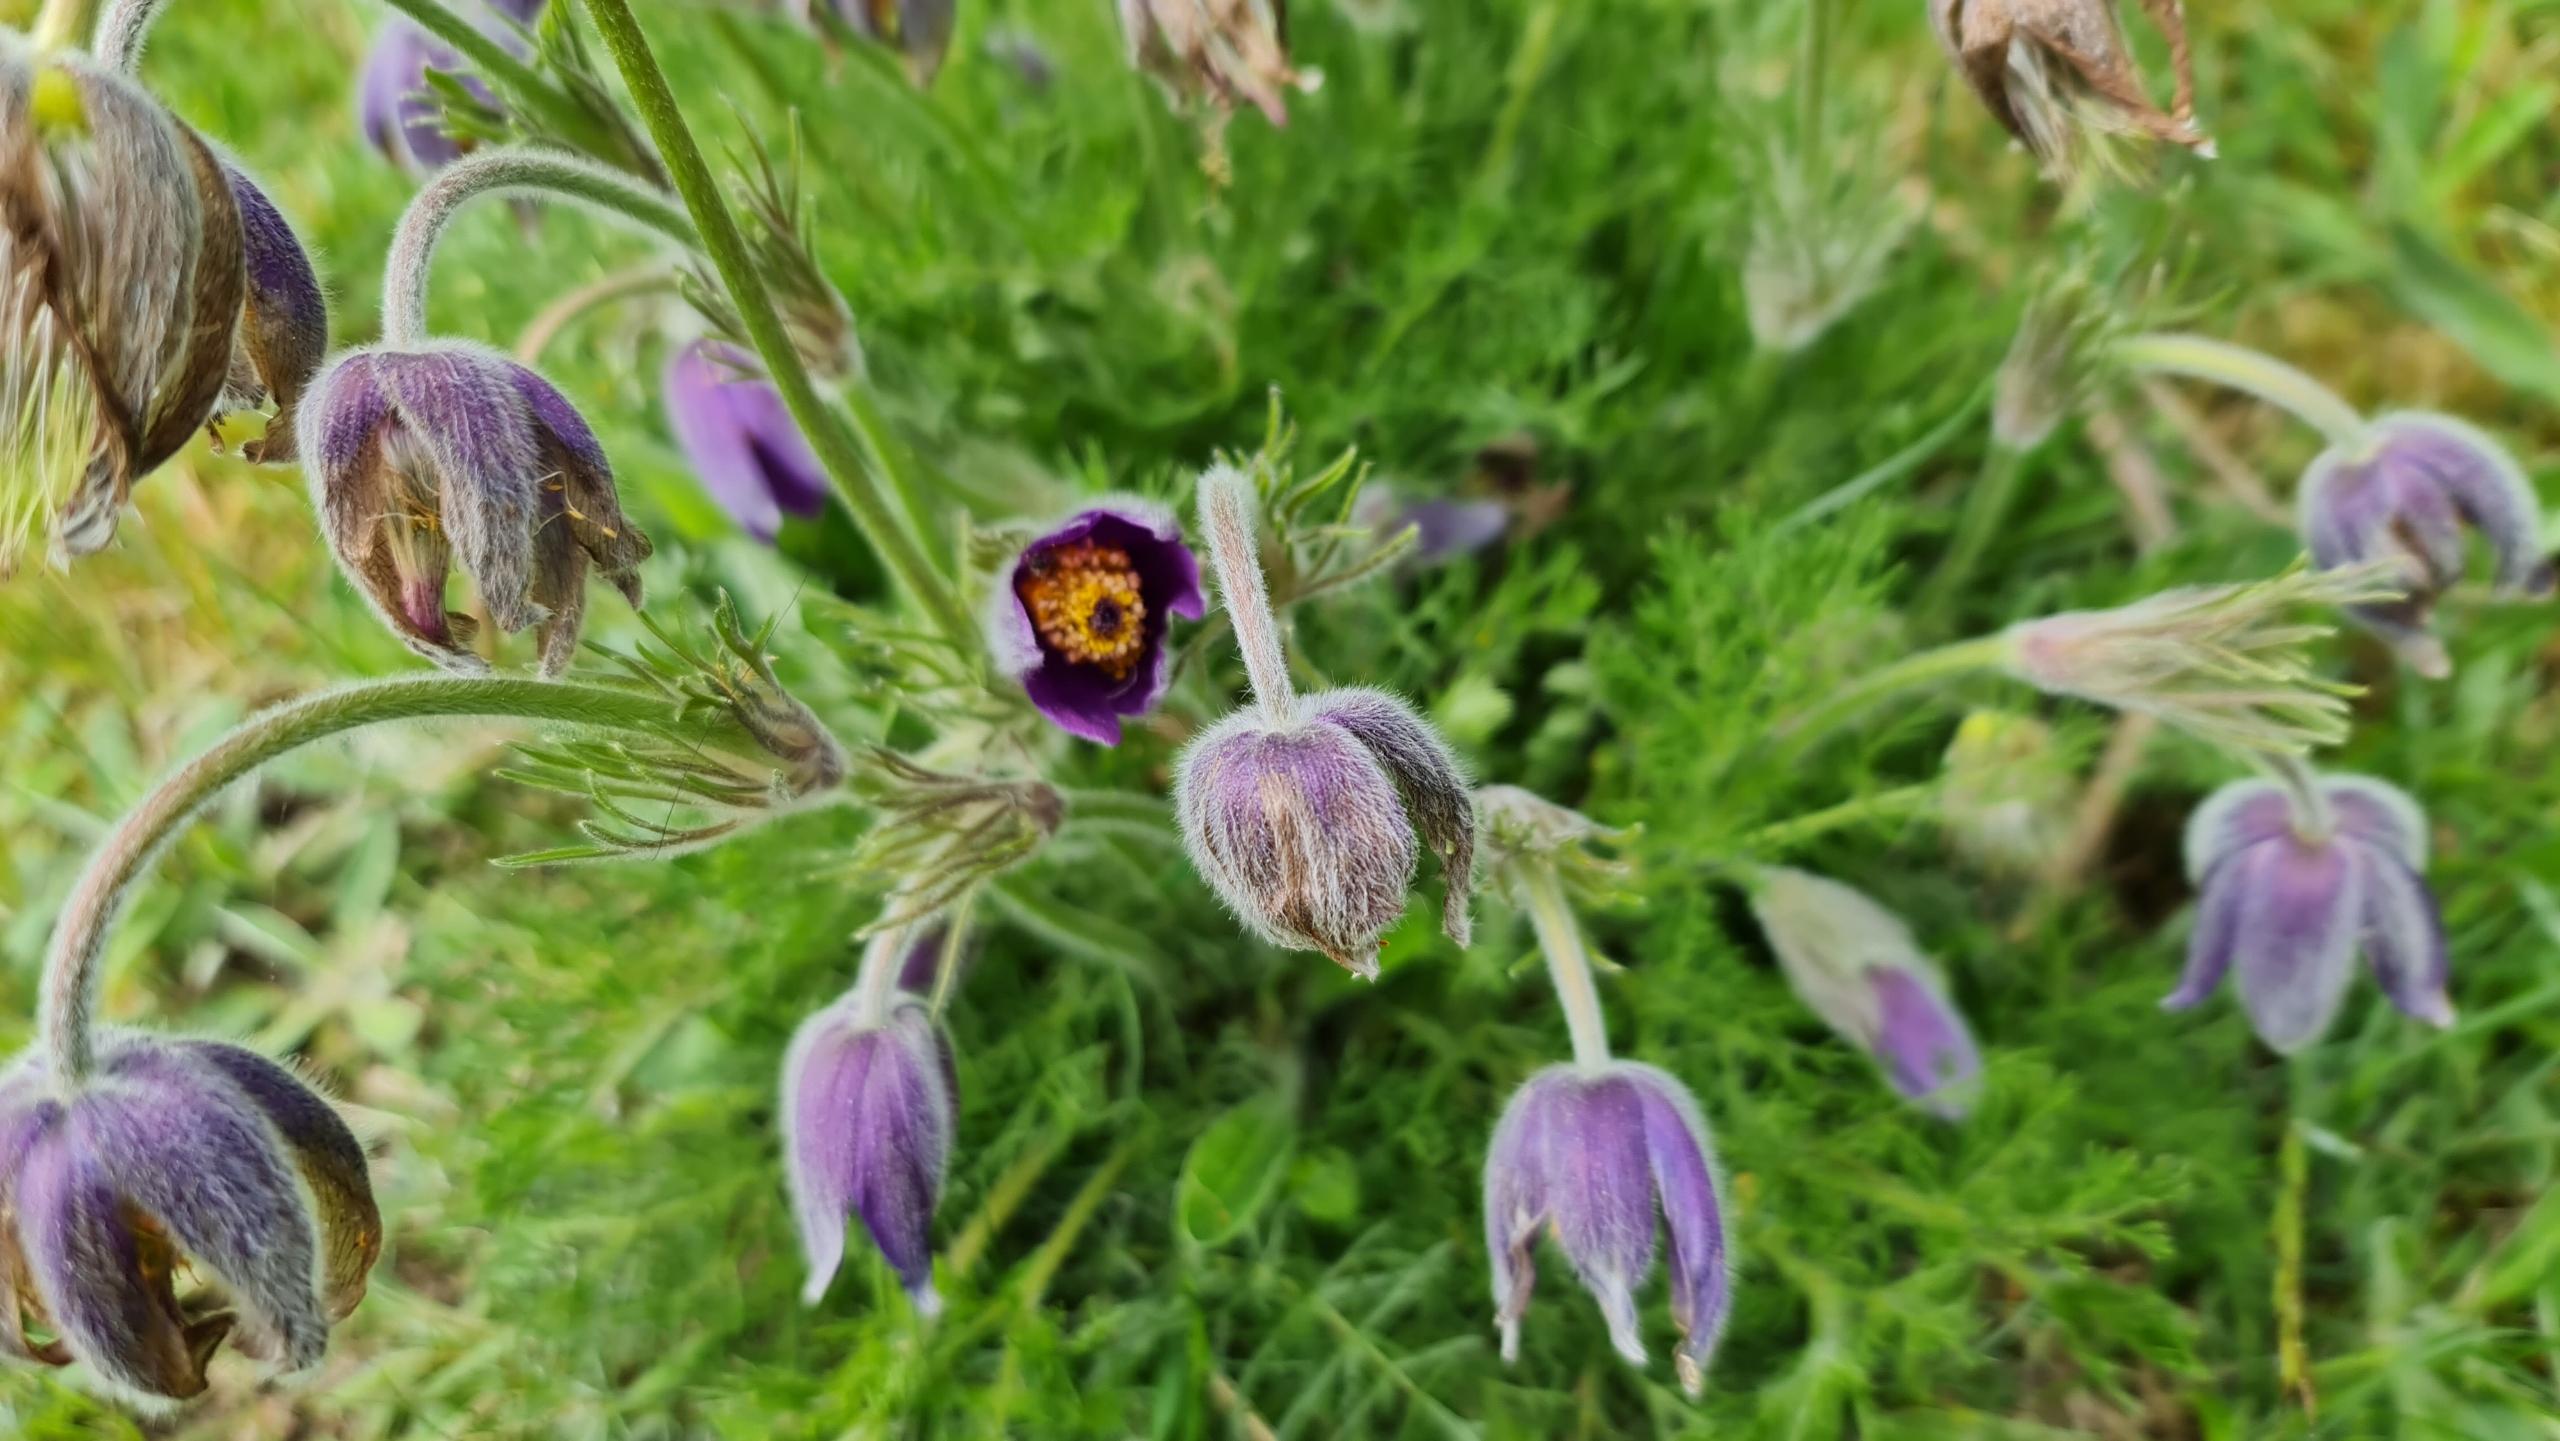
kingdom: Plantae
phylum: Tracheophyta
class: Magnoliopsida
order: Ranunculales
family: Ranunculaceae
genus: Pulsatilla
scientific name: Pulsatilla vulgaris
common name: Opret kobjælde
